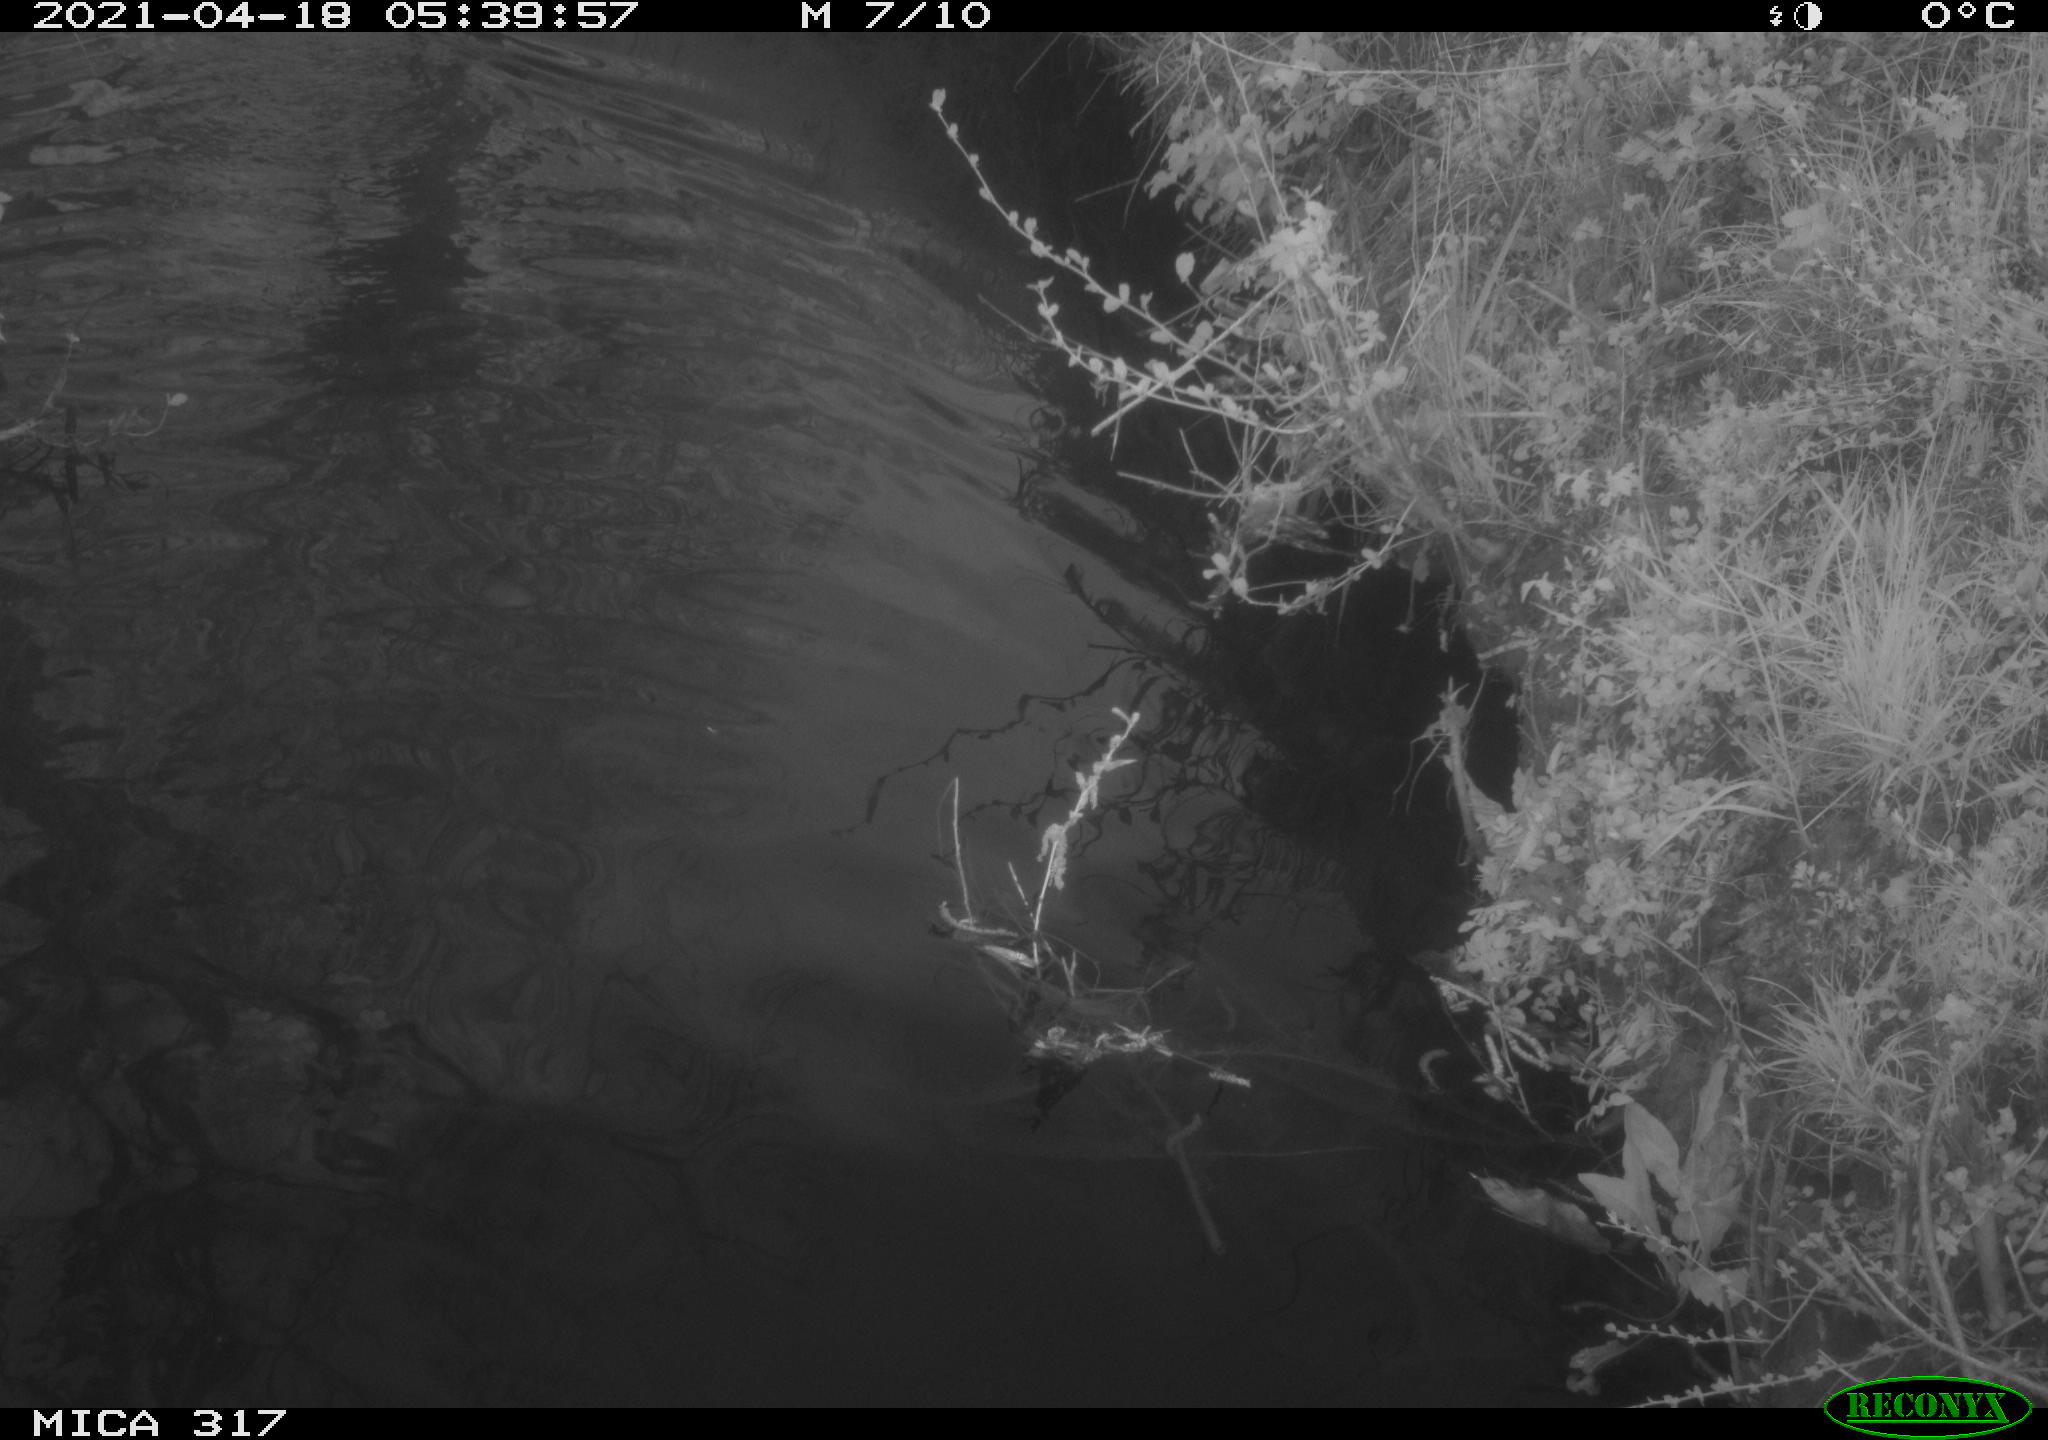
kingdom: Animalia
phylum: Chordata
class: Aves
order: Gruiformes
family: Rallidae
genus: Fulica
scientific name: Fulica atra
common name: Eurasian coot
